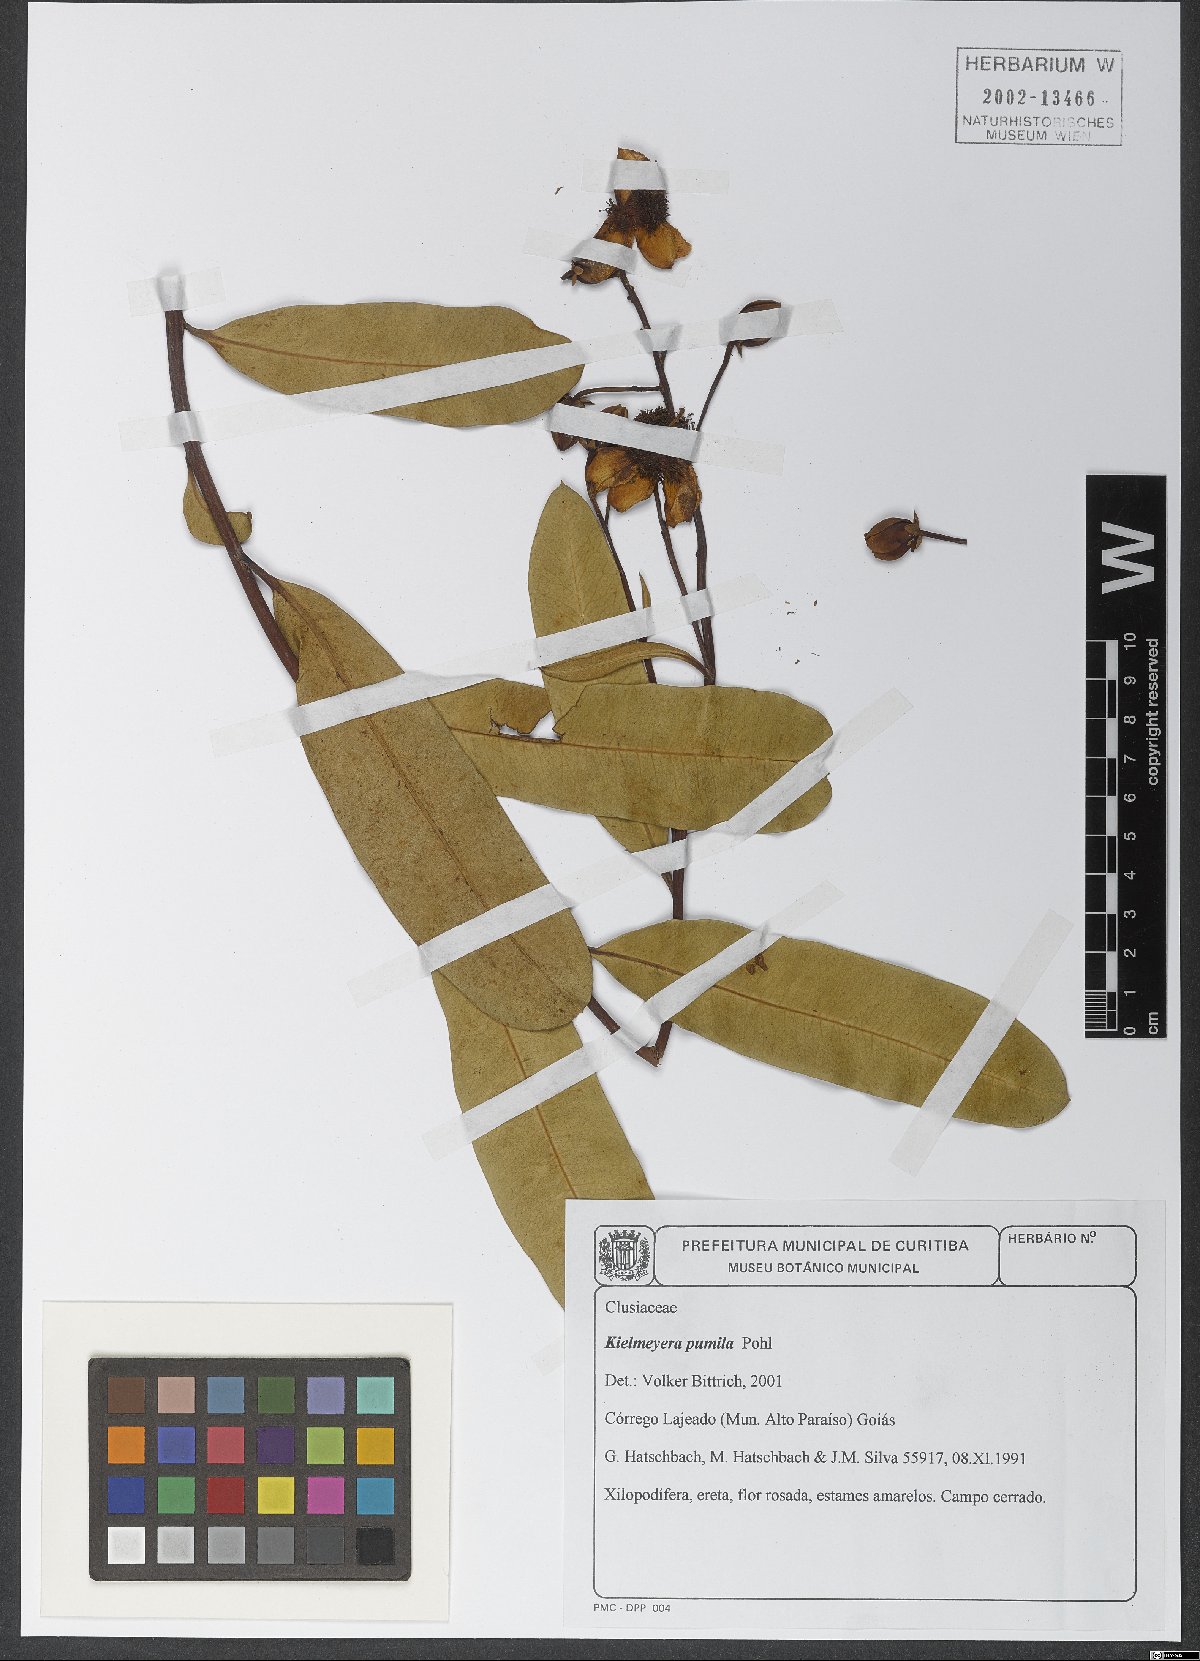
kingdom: Plantae
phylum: Tracheophyta
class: Magnoliopsida
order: Malpighiales
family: Calophyllaceae
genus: Kielmeyera
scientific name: Kielmeyera pumila
